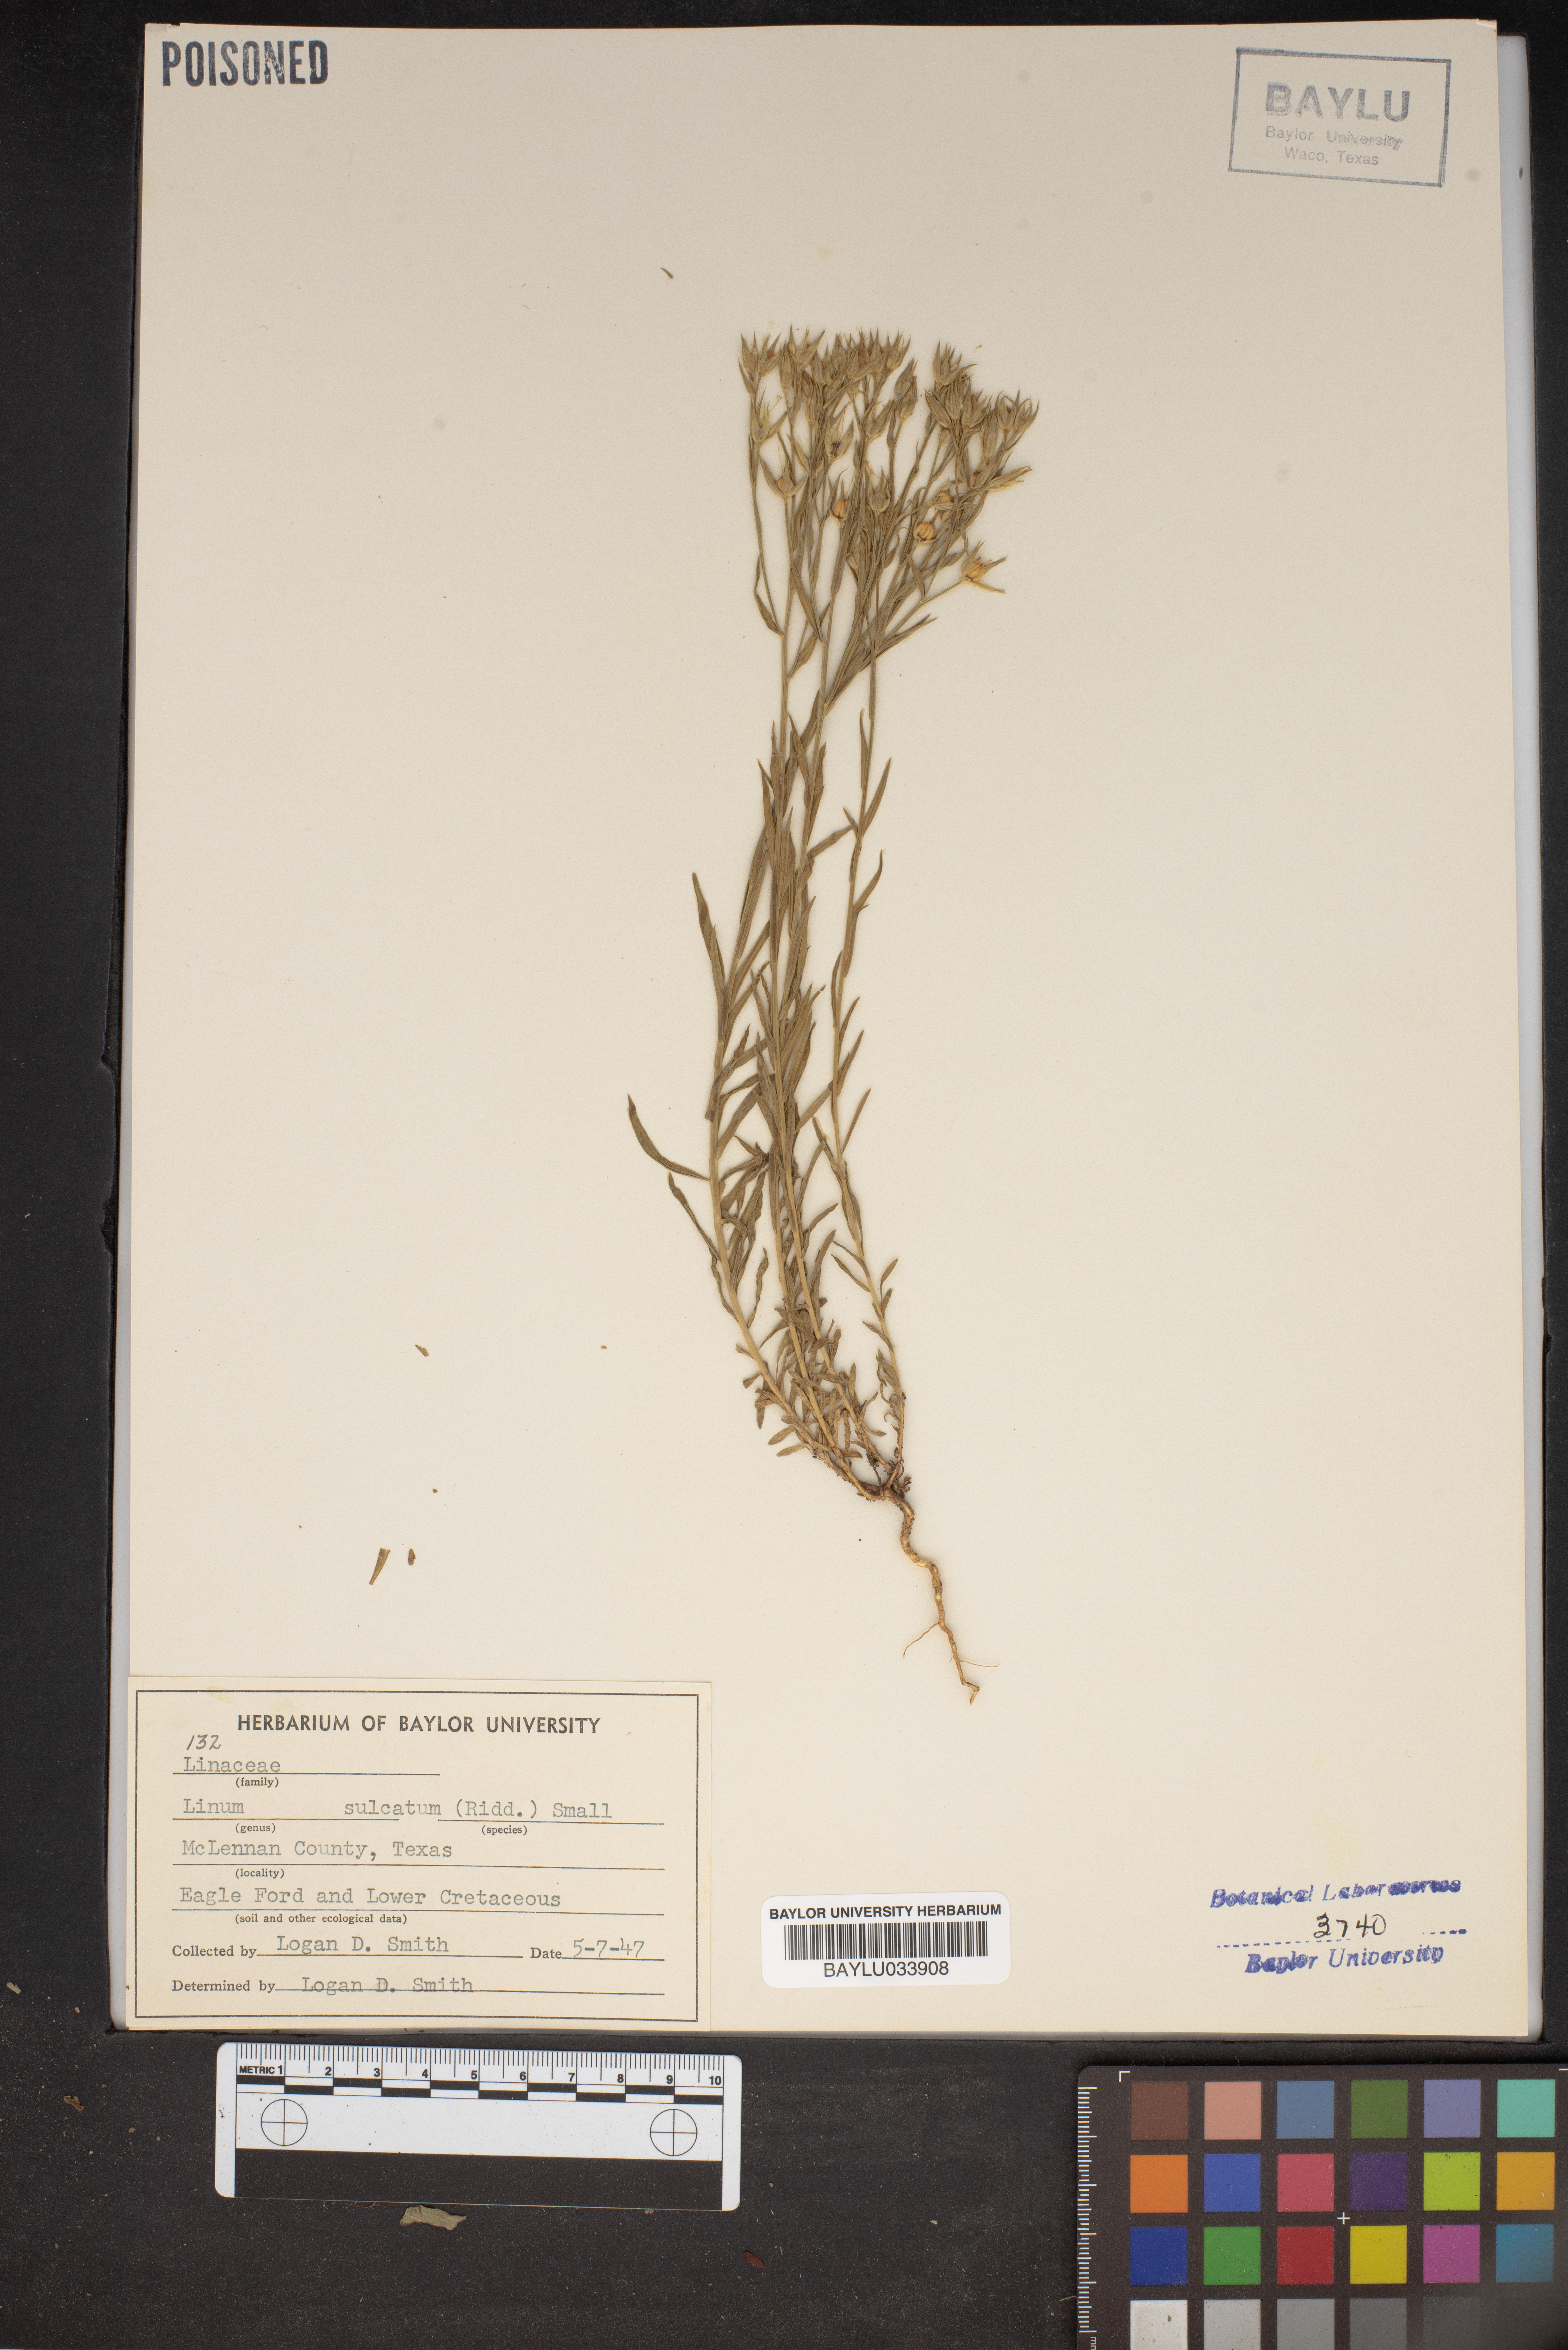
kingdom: Plantae
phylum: Tracheophyta
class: Magnoliopsida
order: Malpighiales
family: Linaceae
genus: Linum
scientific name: Linum sulcatum
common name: Grooved flax
